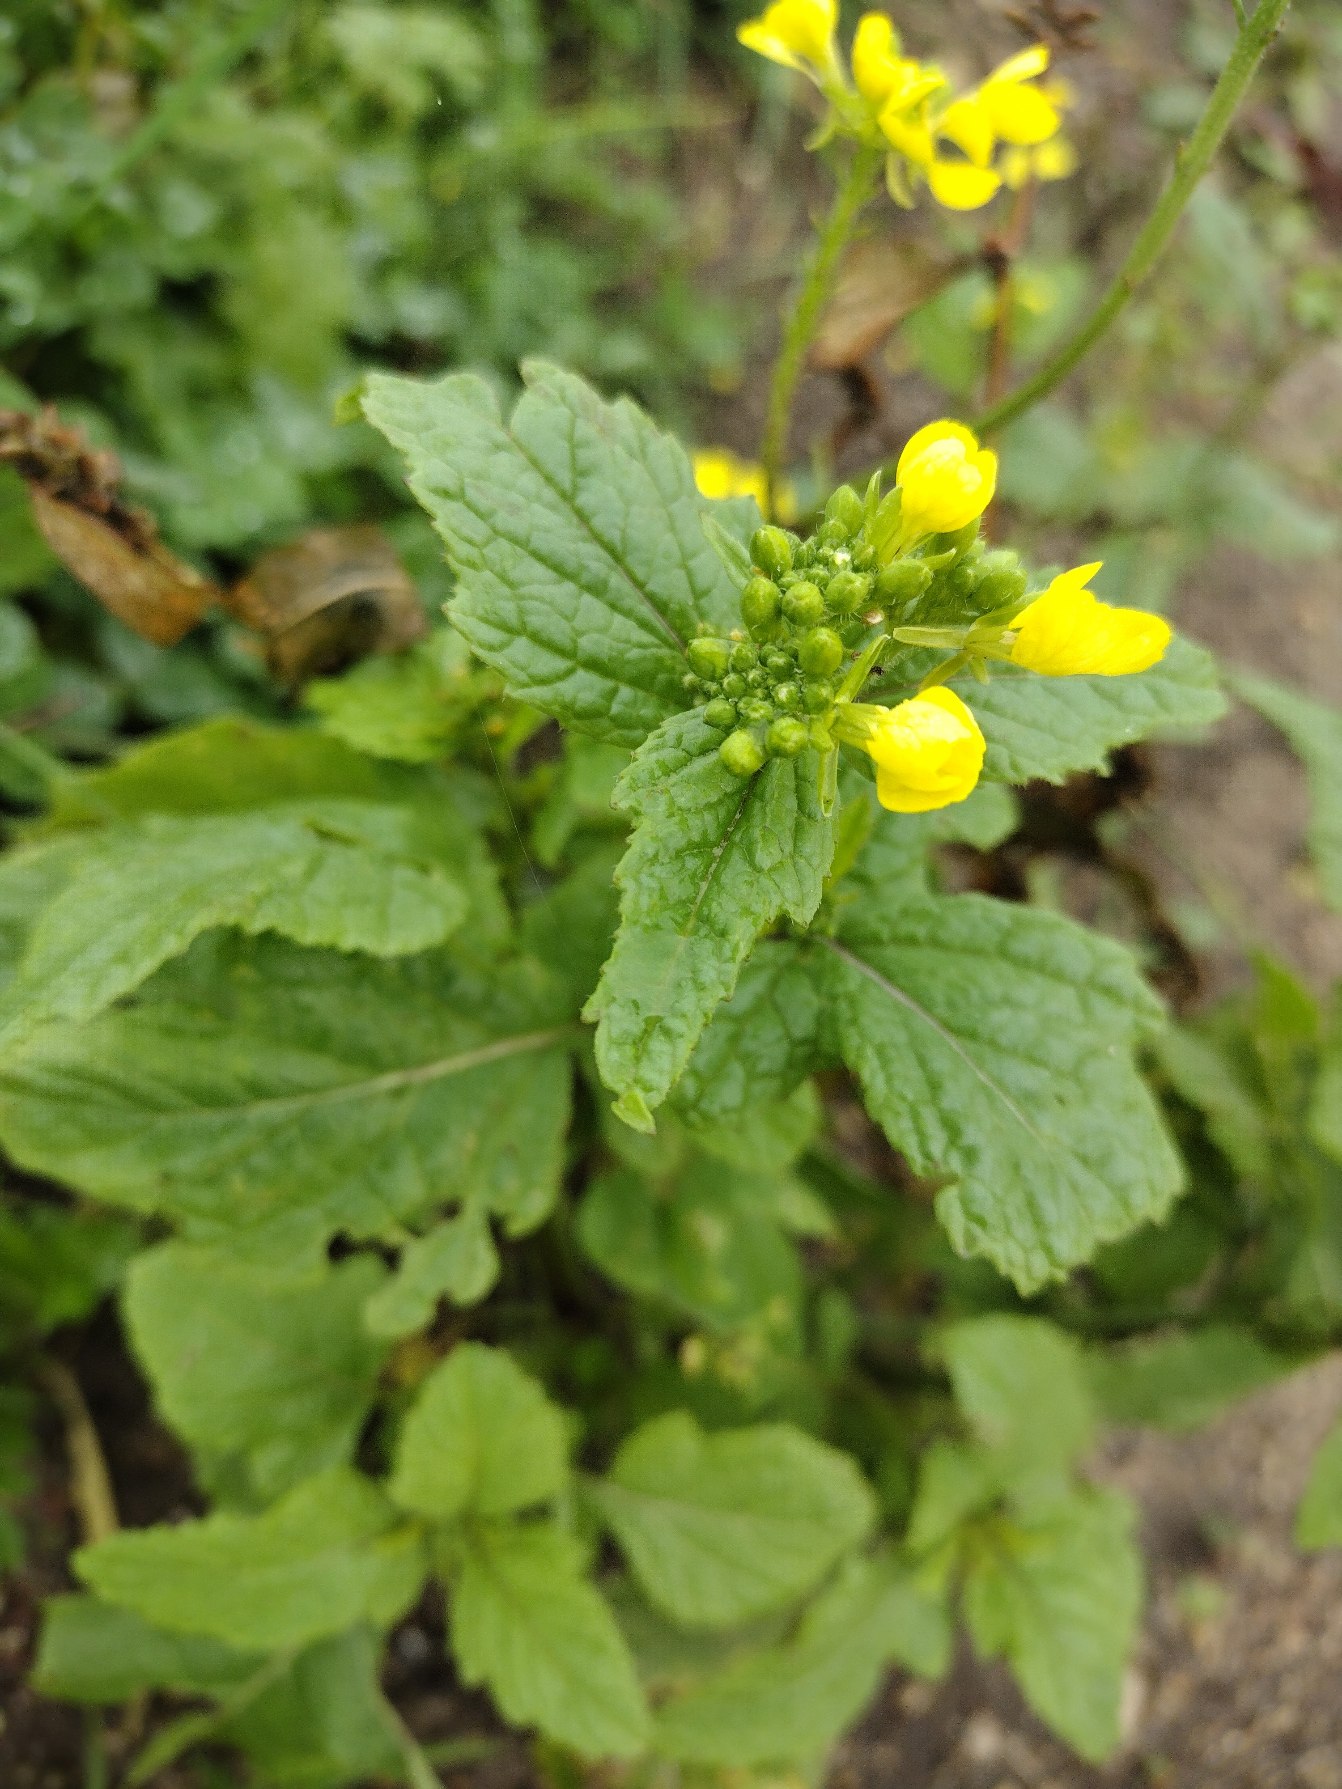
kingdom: Plantae
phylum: Tracheophyta
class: Magnoliopsida
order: Brassicales
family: Brassicaceae
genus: Sinapis
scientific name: Sinapis arvensis
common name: Ager-sennep
